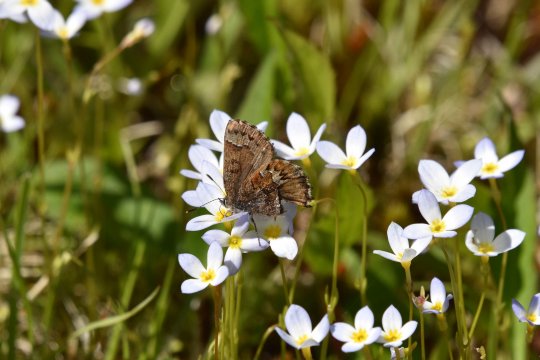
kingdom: Animalia
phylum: Arthropoda
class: Insecta
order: Lepidoptera
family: Lycaenidae
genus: Incisalia
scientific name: Incisalia niphon
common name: Eastern Pine Elfin
